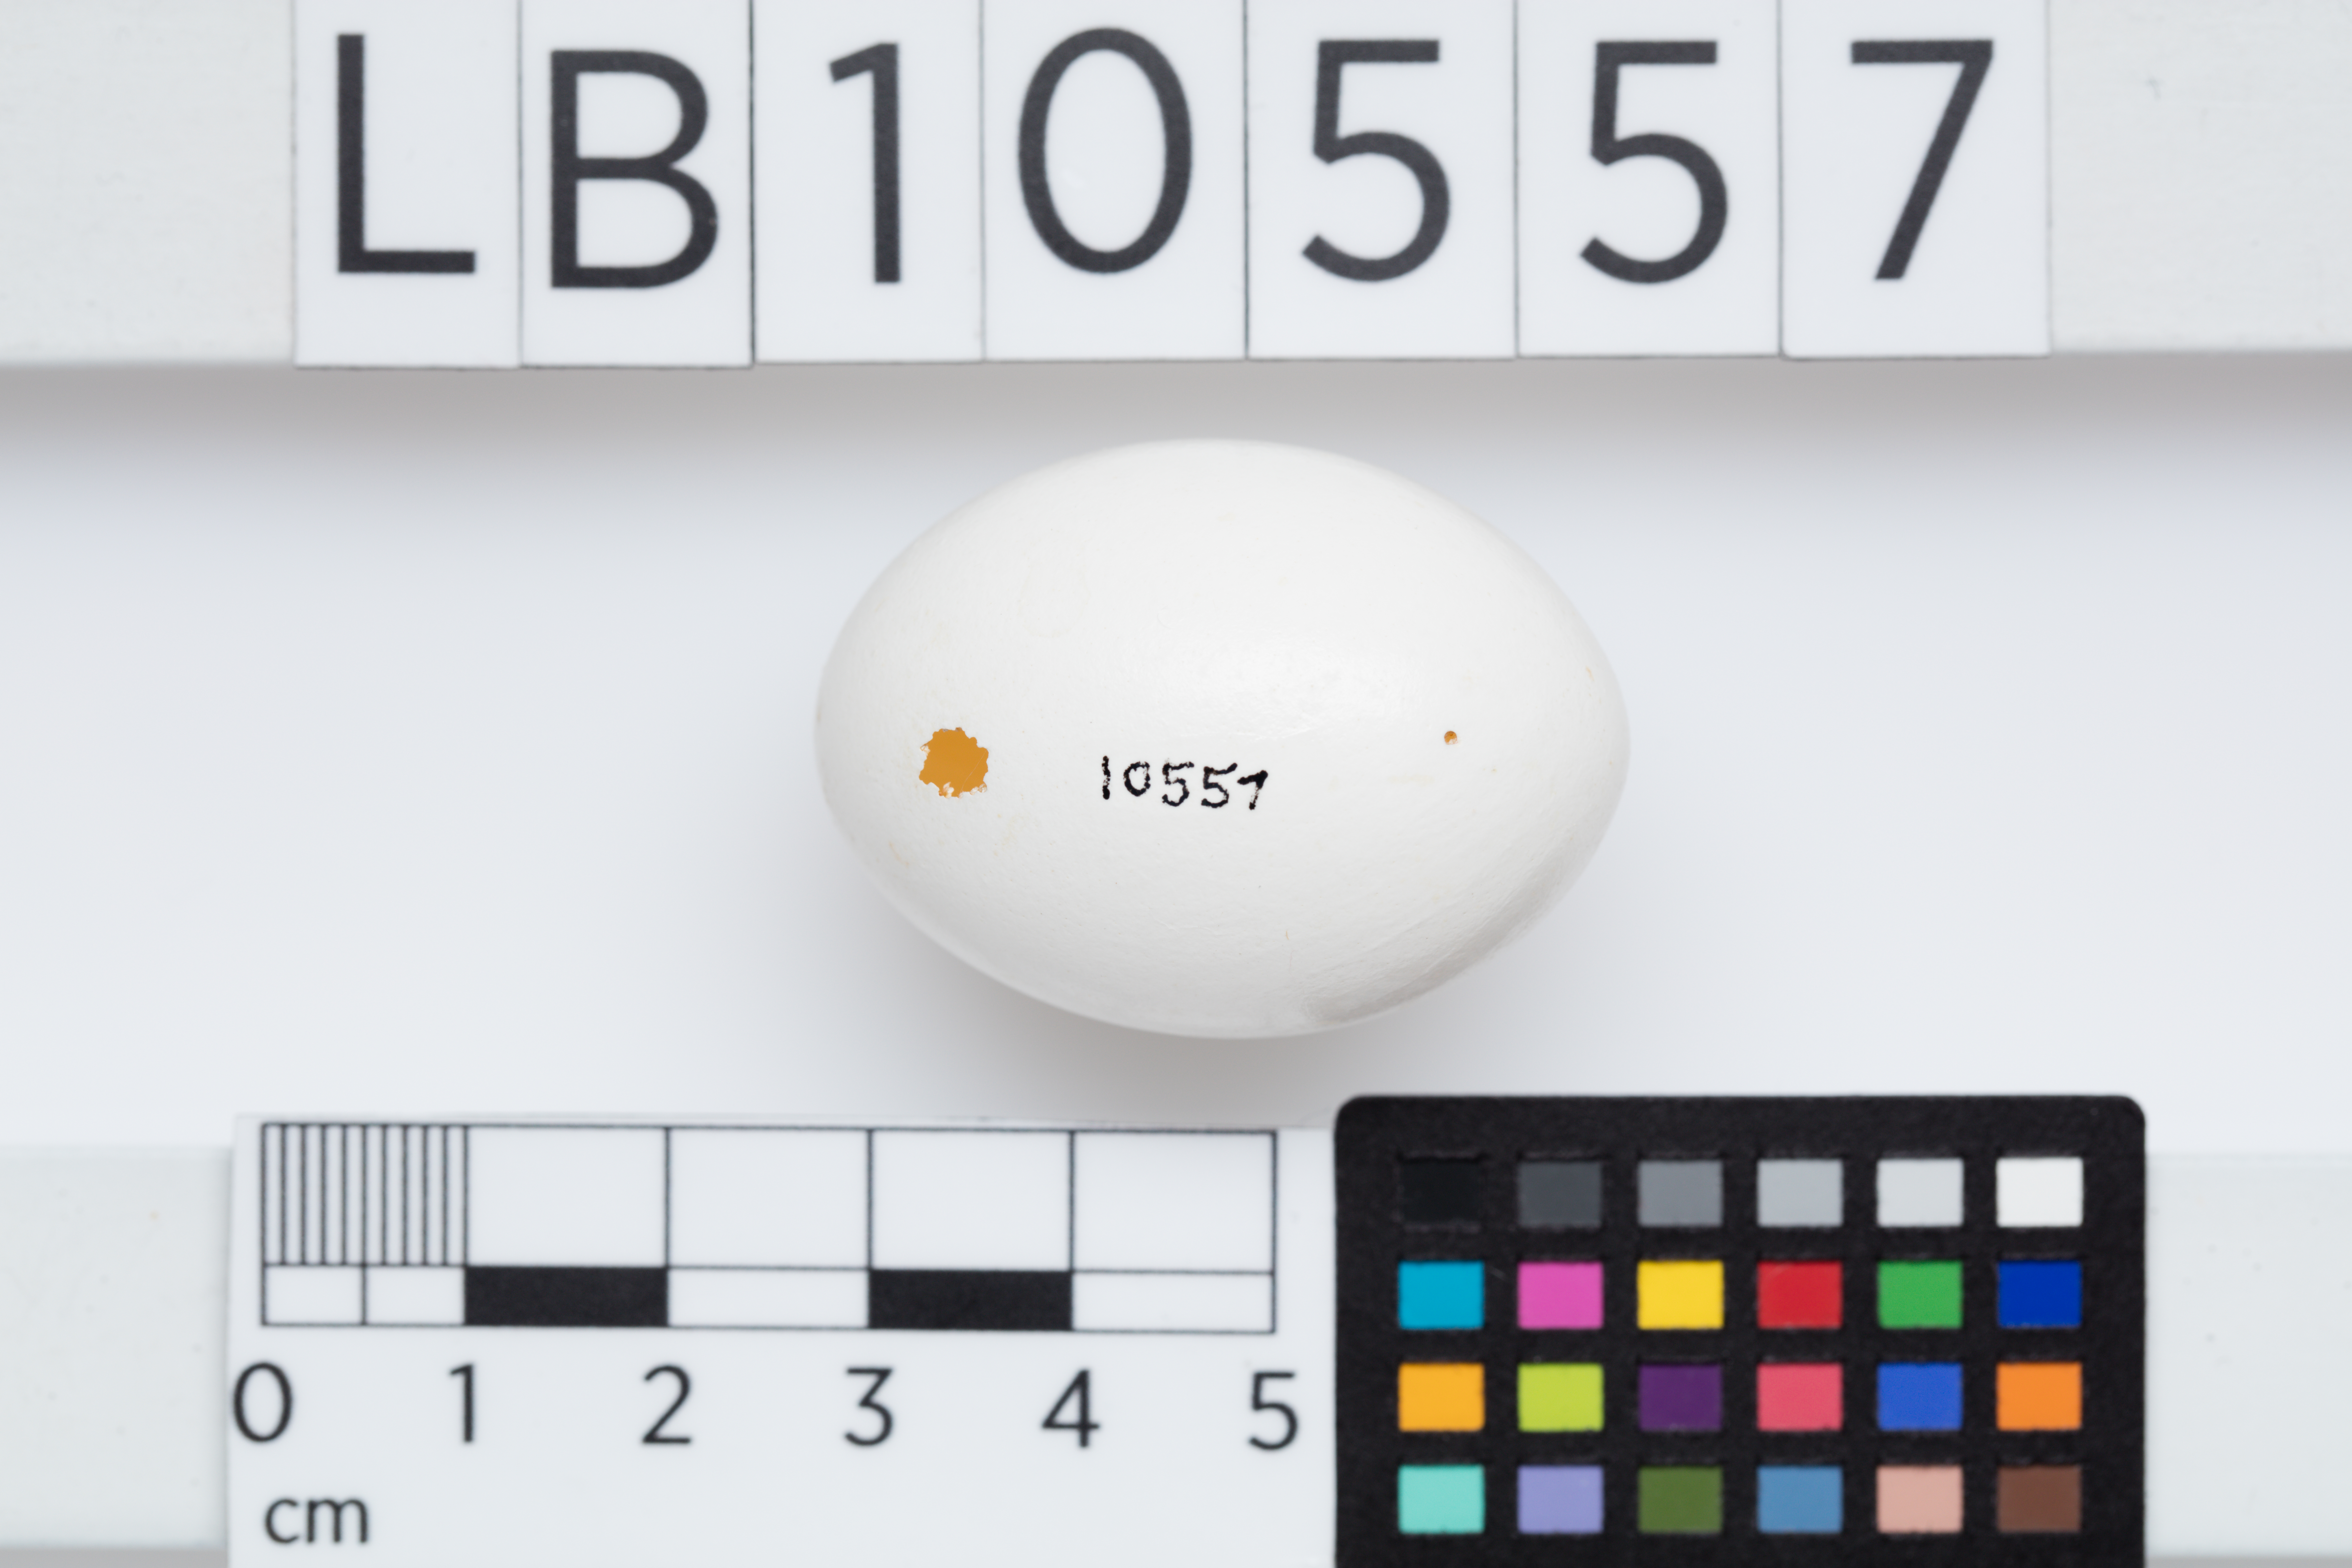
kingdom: Animalia
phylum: Chordata
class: Aves
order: Columbiformes
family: Columbidae
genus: Columba
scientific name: Columba oenas
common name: Stock dove
